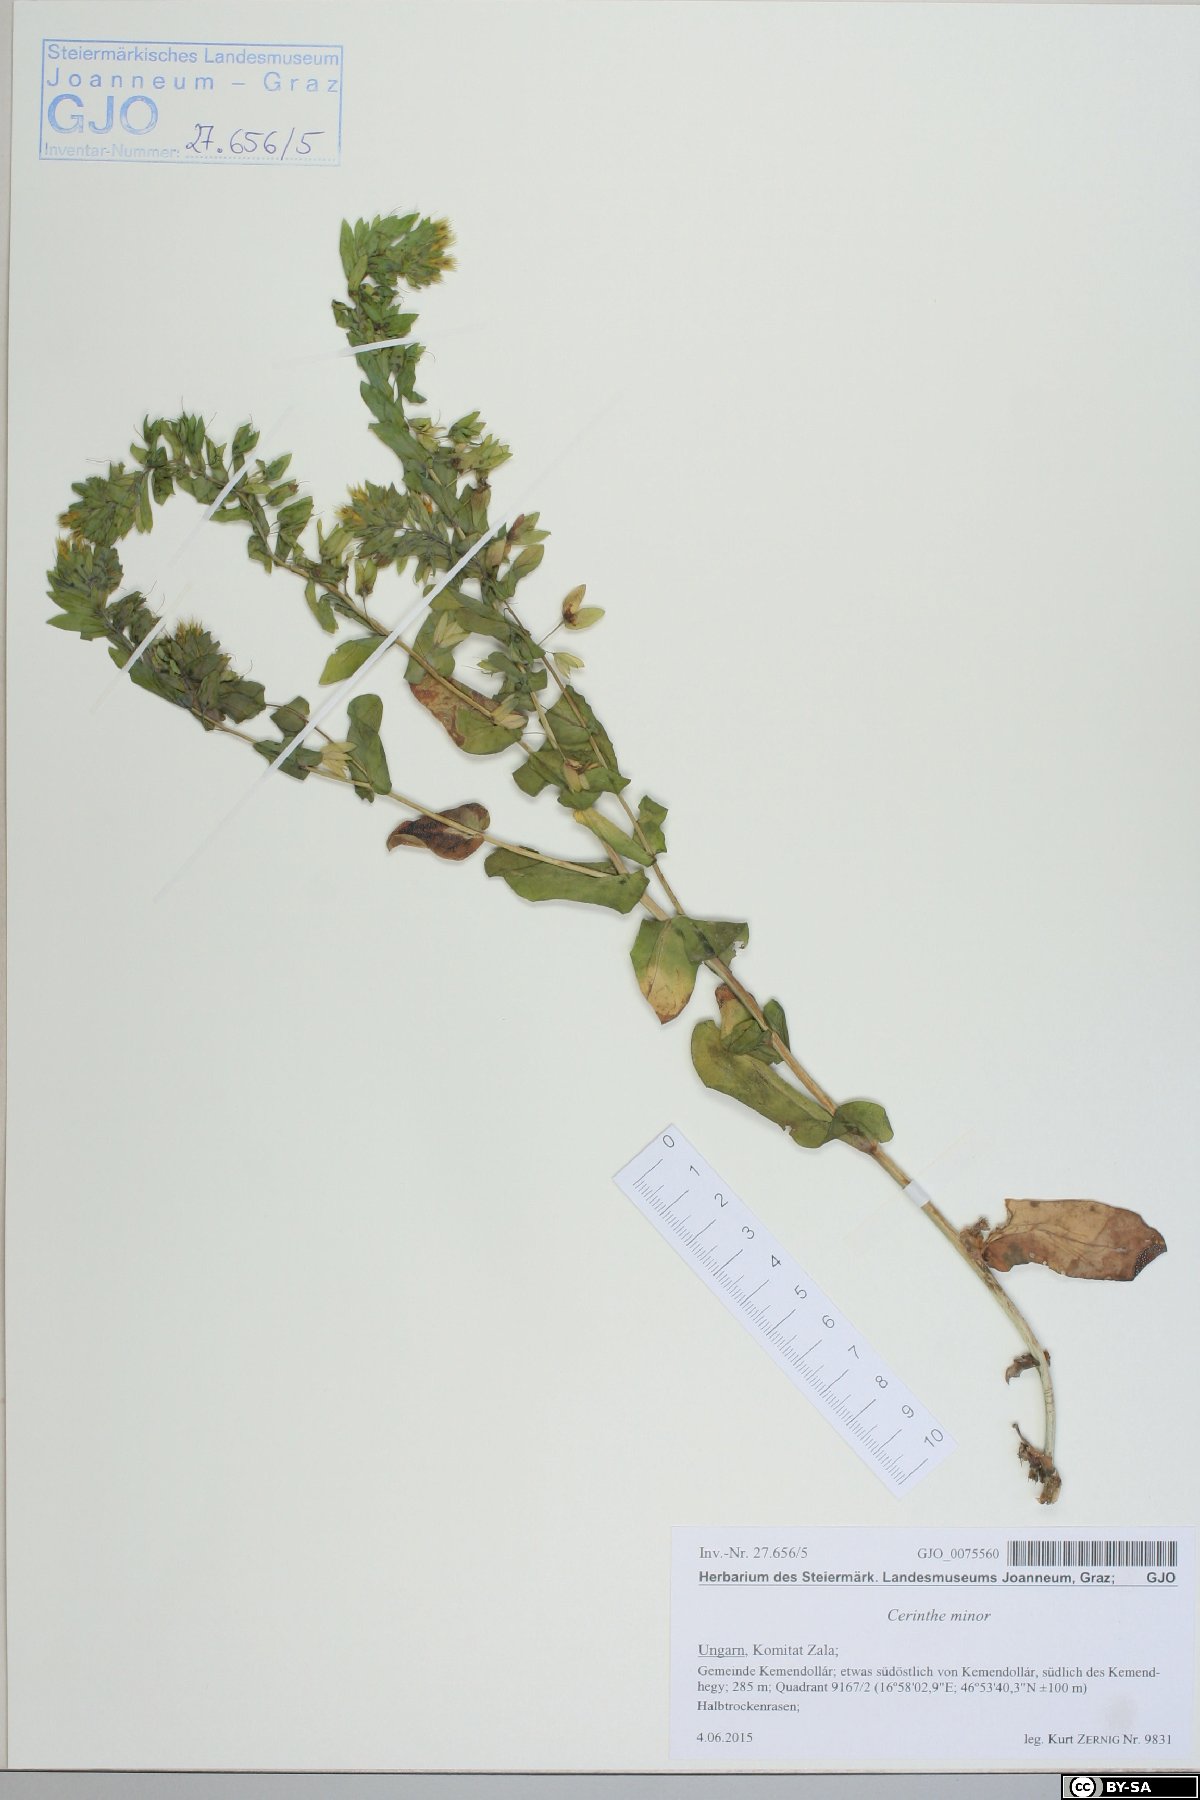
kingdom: Plantae
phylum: Tracheophyta
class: Magnoliopsida
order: Boraginales
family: Boraginaceae
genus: Cerinthe
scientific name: Cerinthe minor
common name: Lesser honeywort
